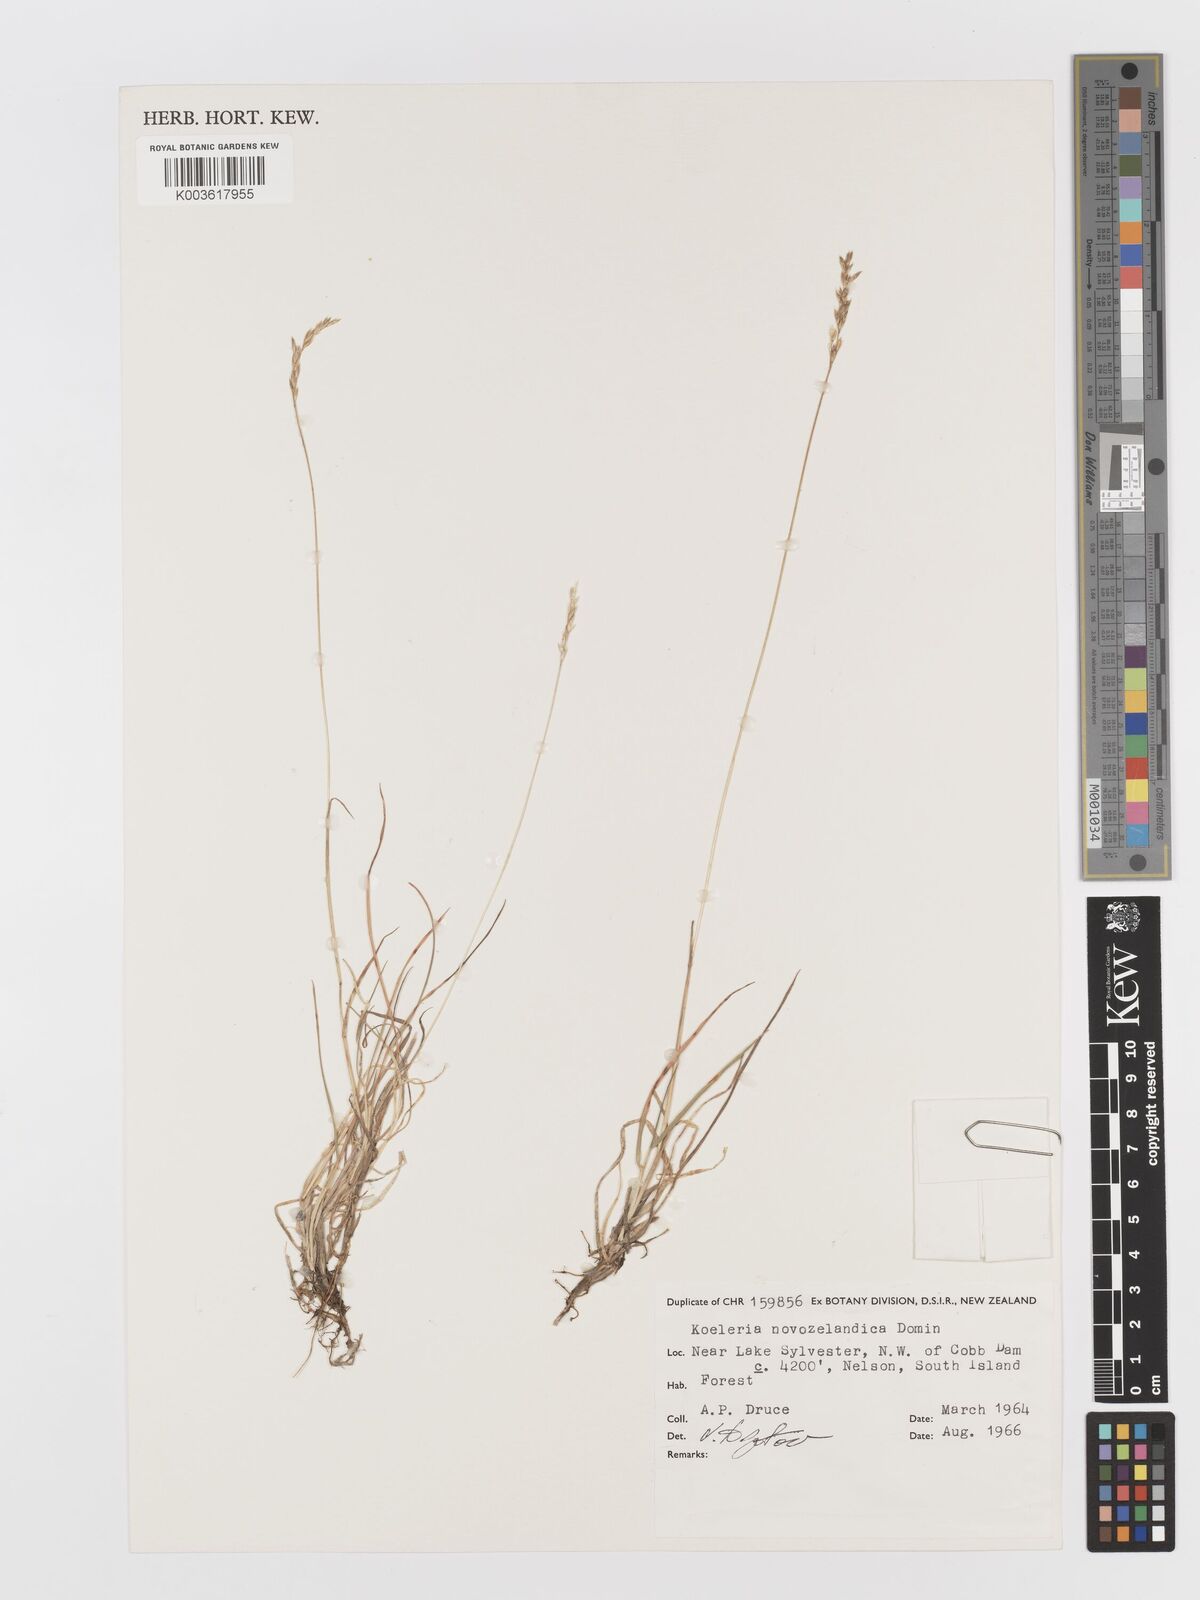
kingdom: Plantae
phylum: Tracheophyta
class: Liliopsida
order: Poales
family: Poaceae
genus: Koeleria
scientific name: Koeleria novozelandica
